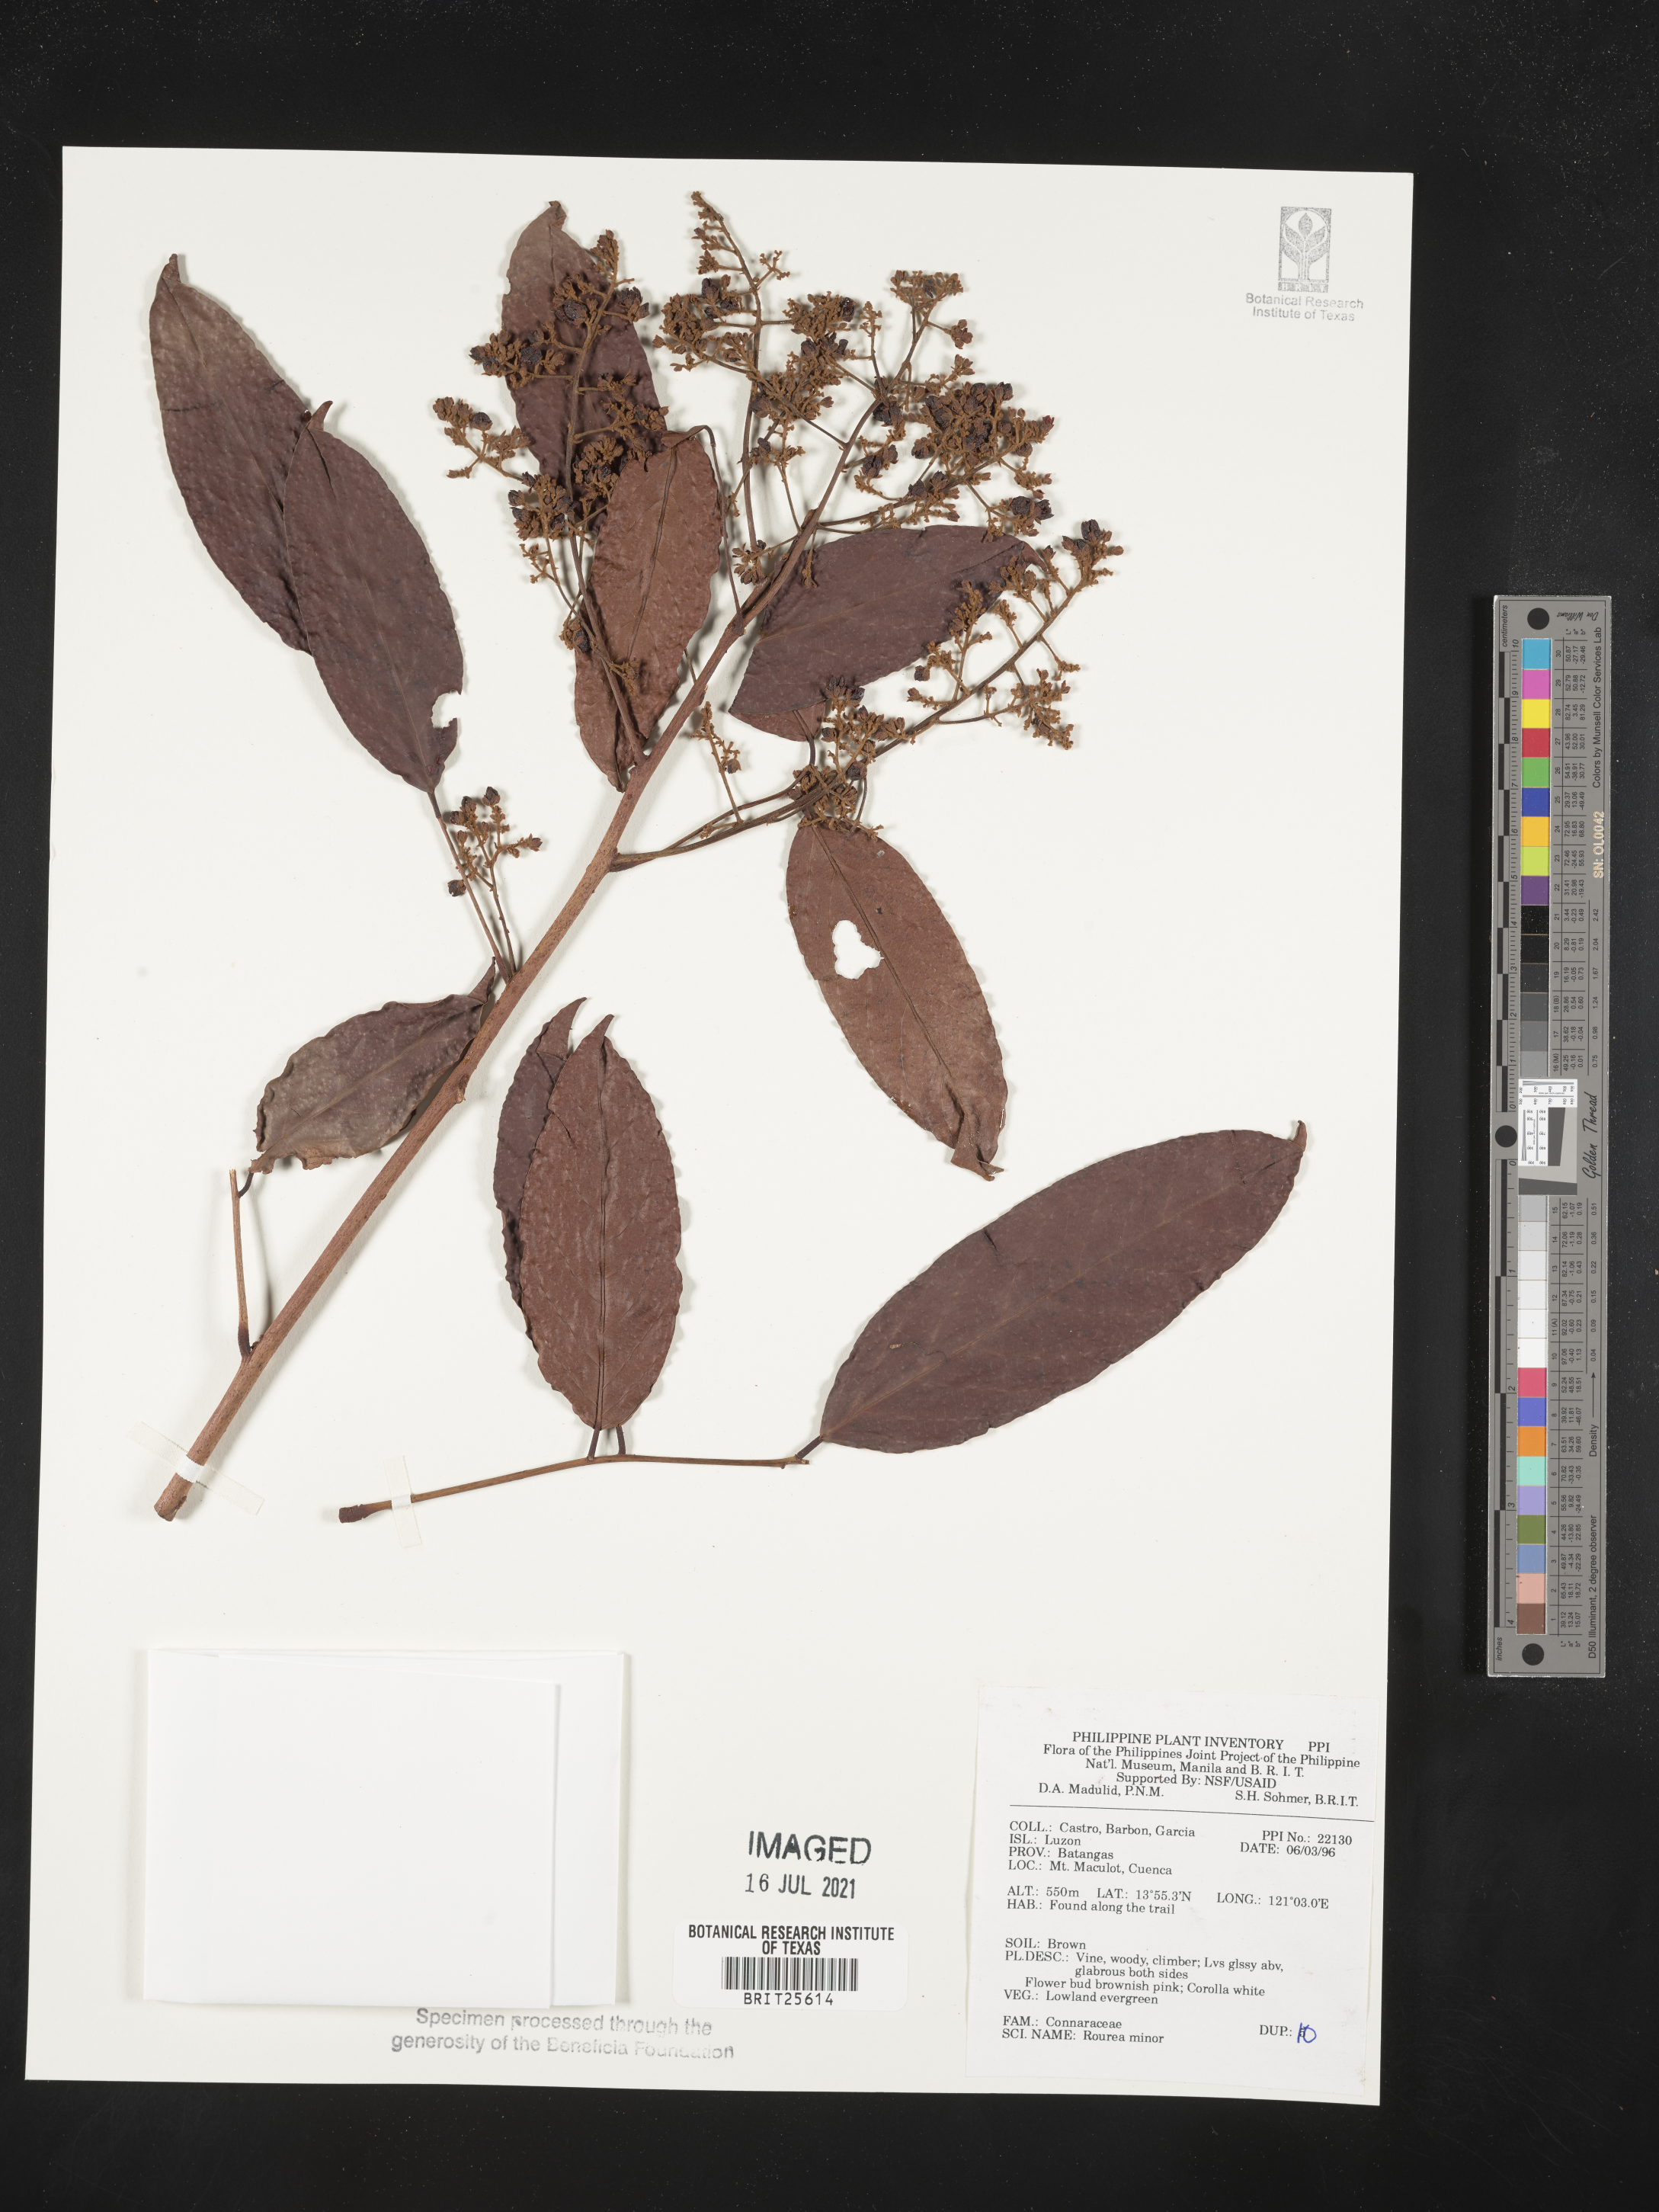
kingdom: Plantae
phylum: Tracheophyta
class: Magnoliopsida
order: Oxalidales
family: Connaraceae
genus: Rourea
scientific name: Rourea minor
